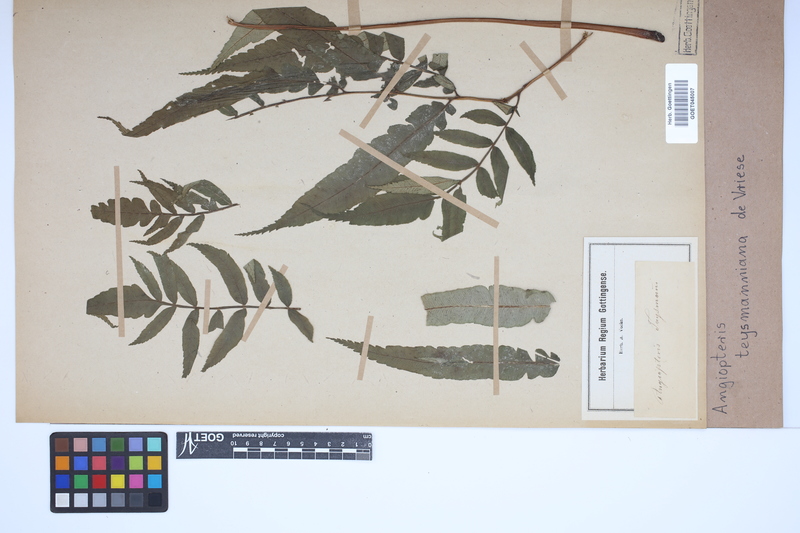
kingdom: Plantae
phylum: Tracheophyta
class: Polypodiopsida
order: Marattiales
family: Marattiaceae
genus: Angiopteris
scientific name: Angiopteris javanica
